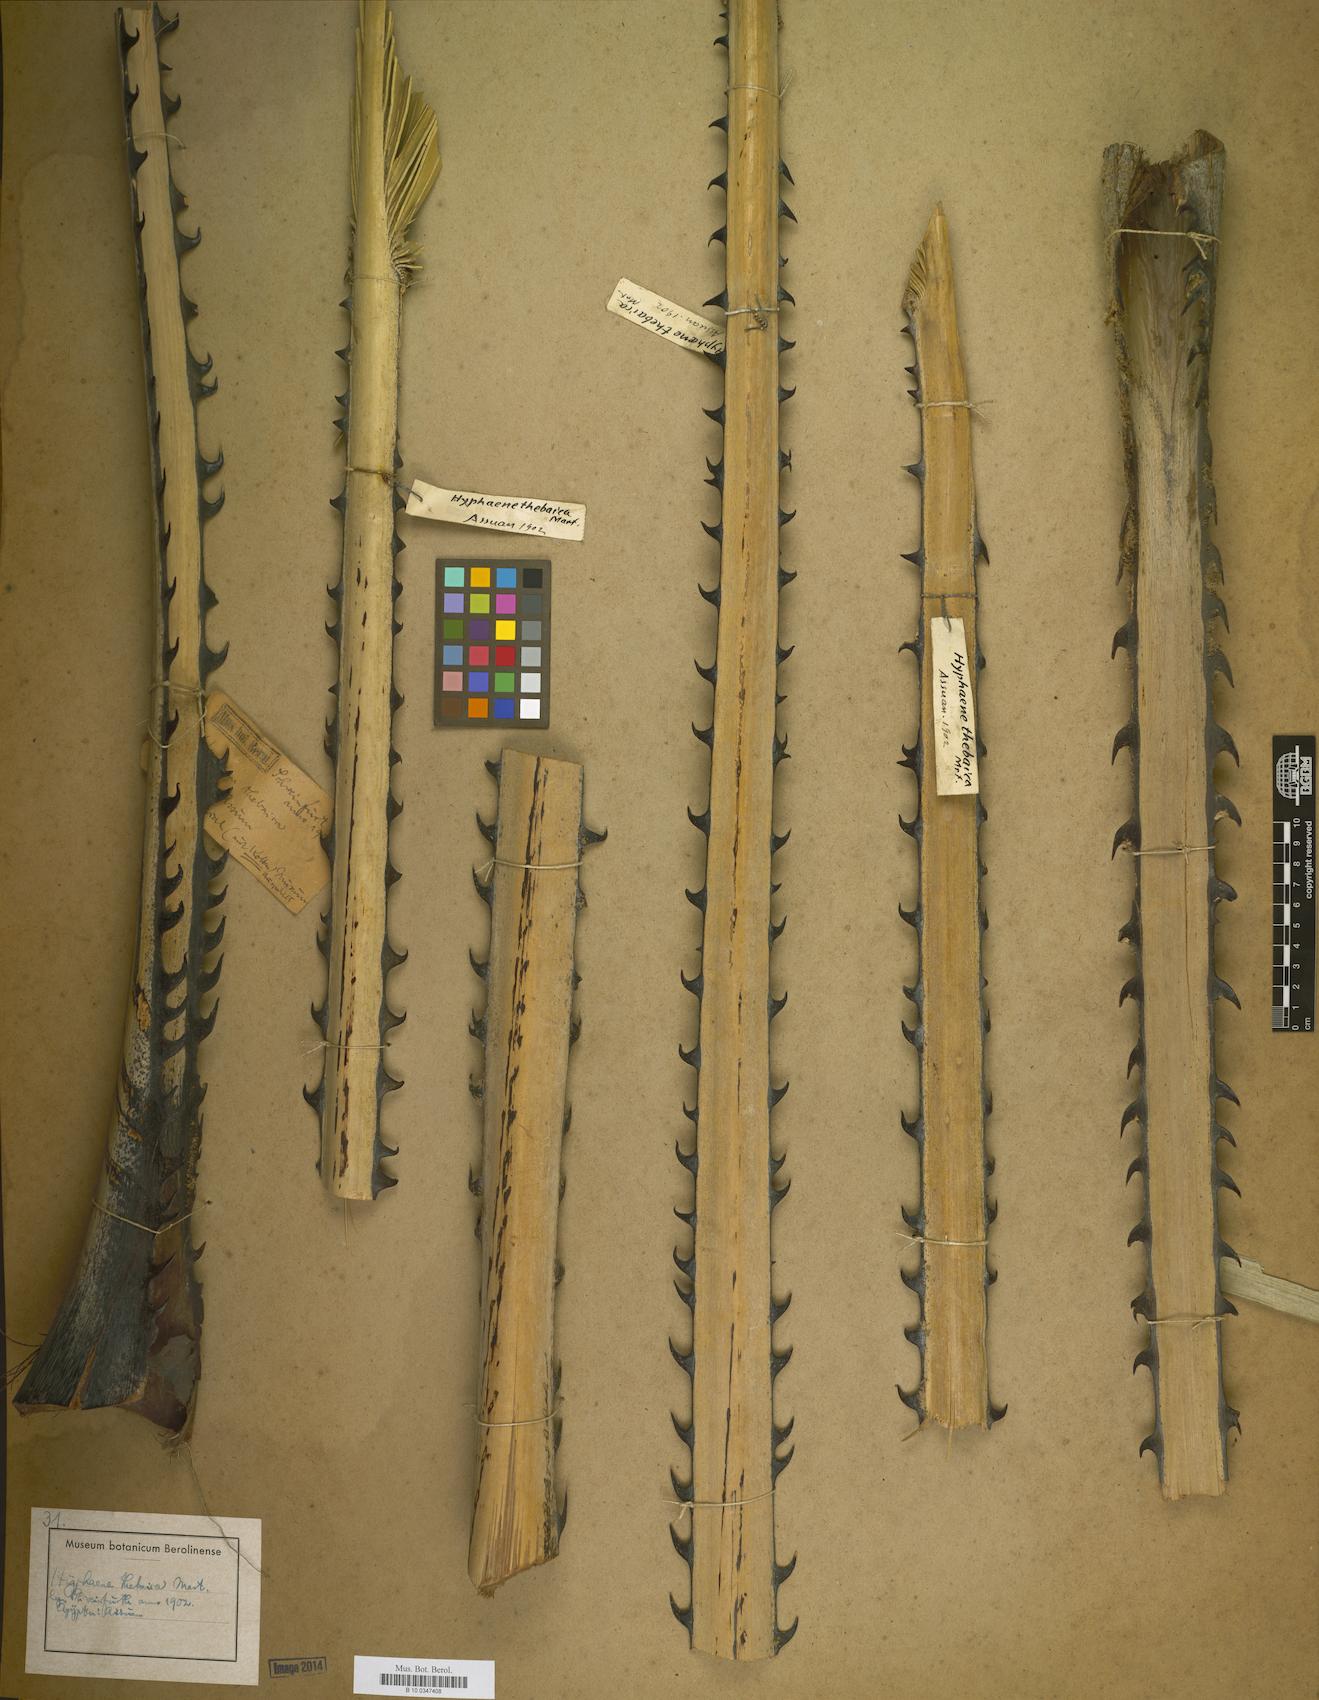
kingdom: Plantae
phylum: Tracheophyta
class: Liliopsida
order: Arecales
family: Arecaceae
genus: Hyphaene
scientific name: Hyphaene
